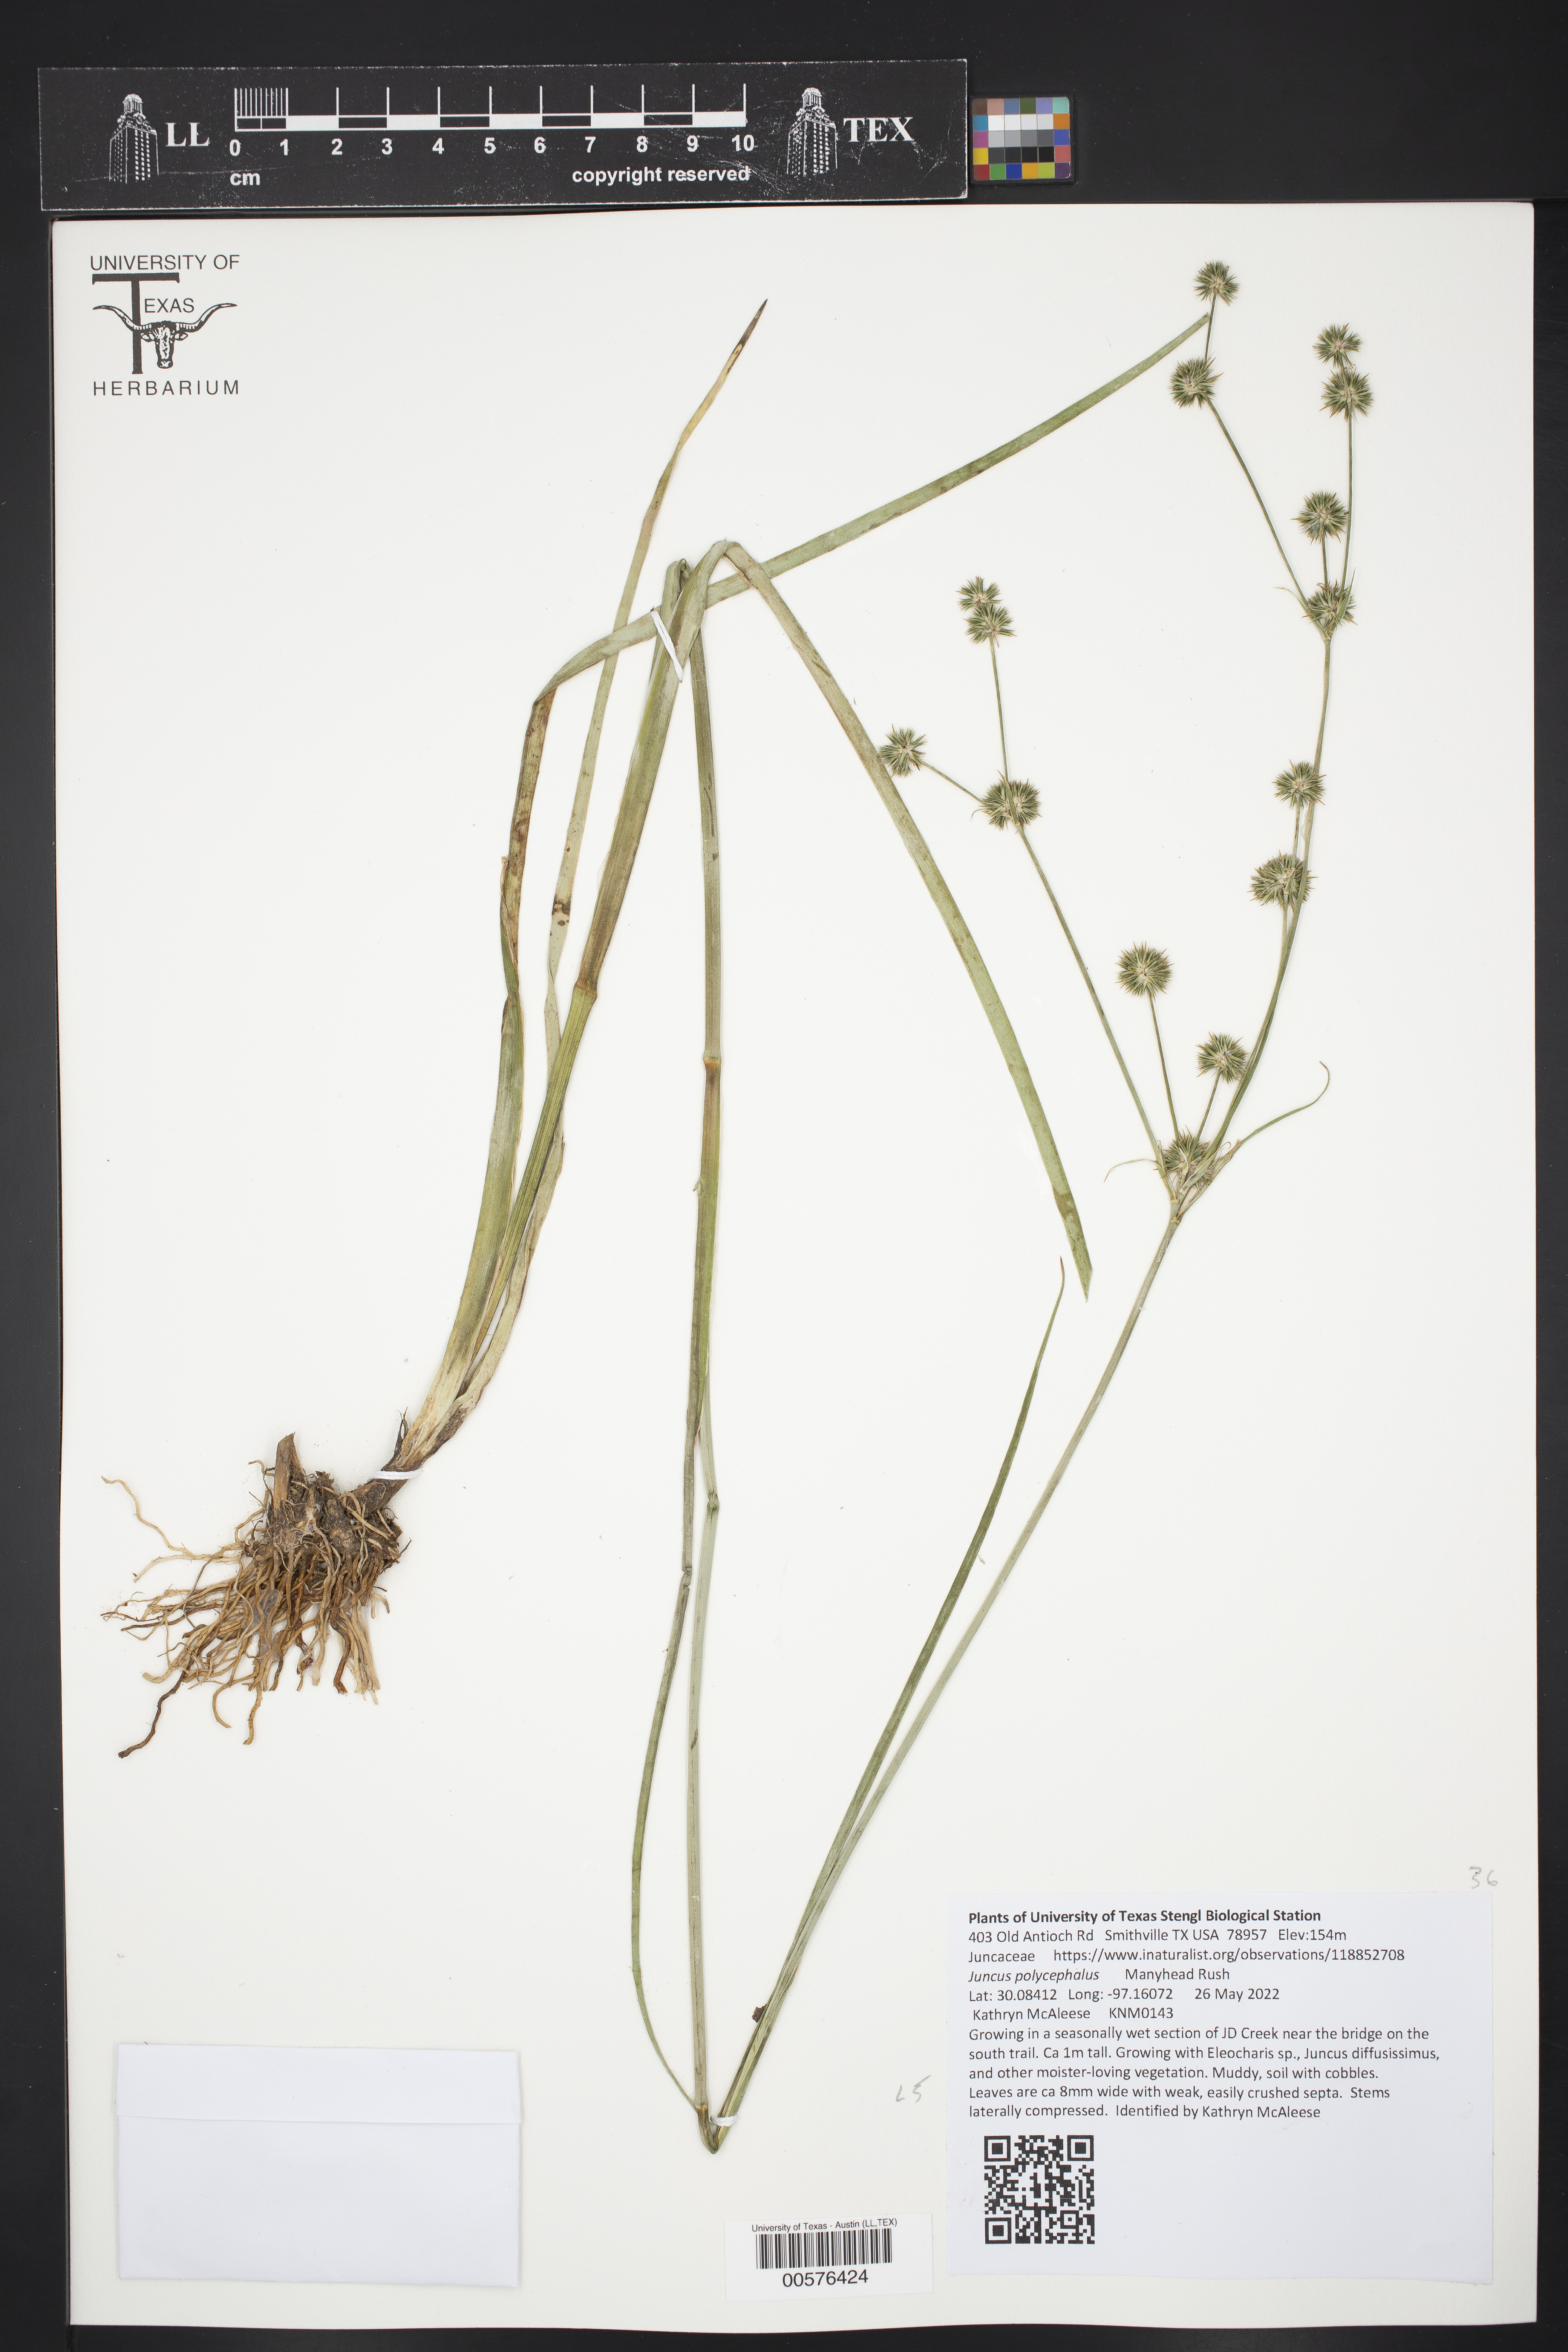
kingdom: Plantae
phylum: Tracheophyta
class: Liliopsida
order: Poales
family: Juncaceae
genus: Juncus
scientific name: Juncus polycephalus
